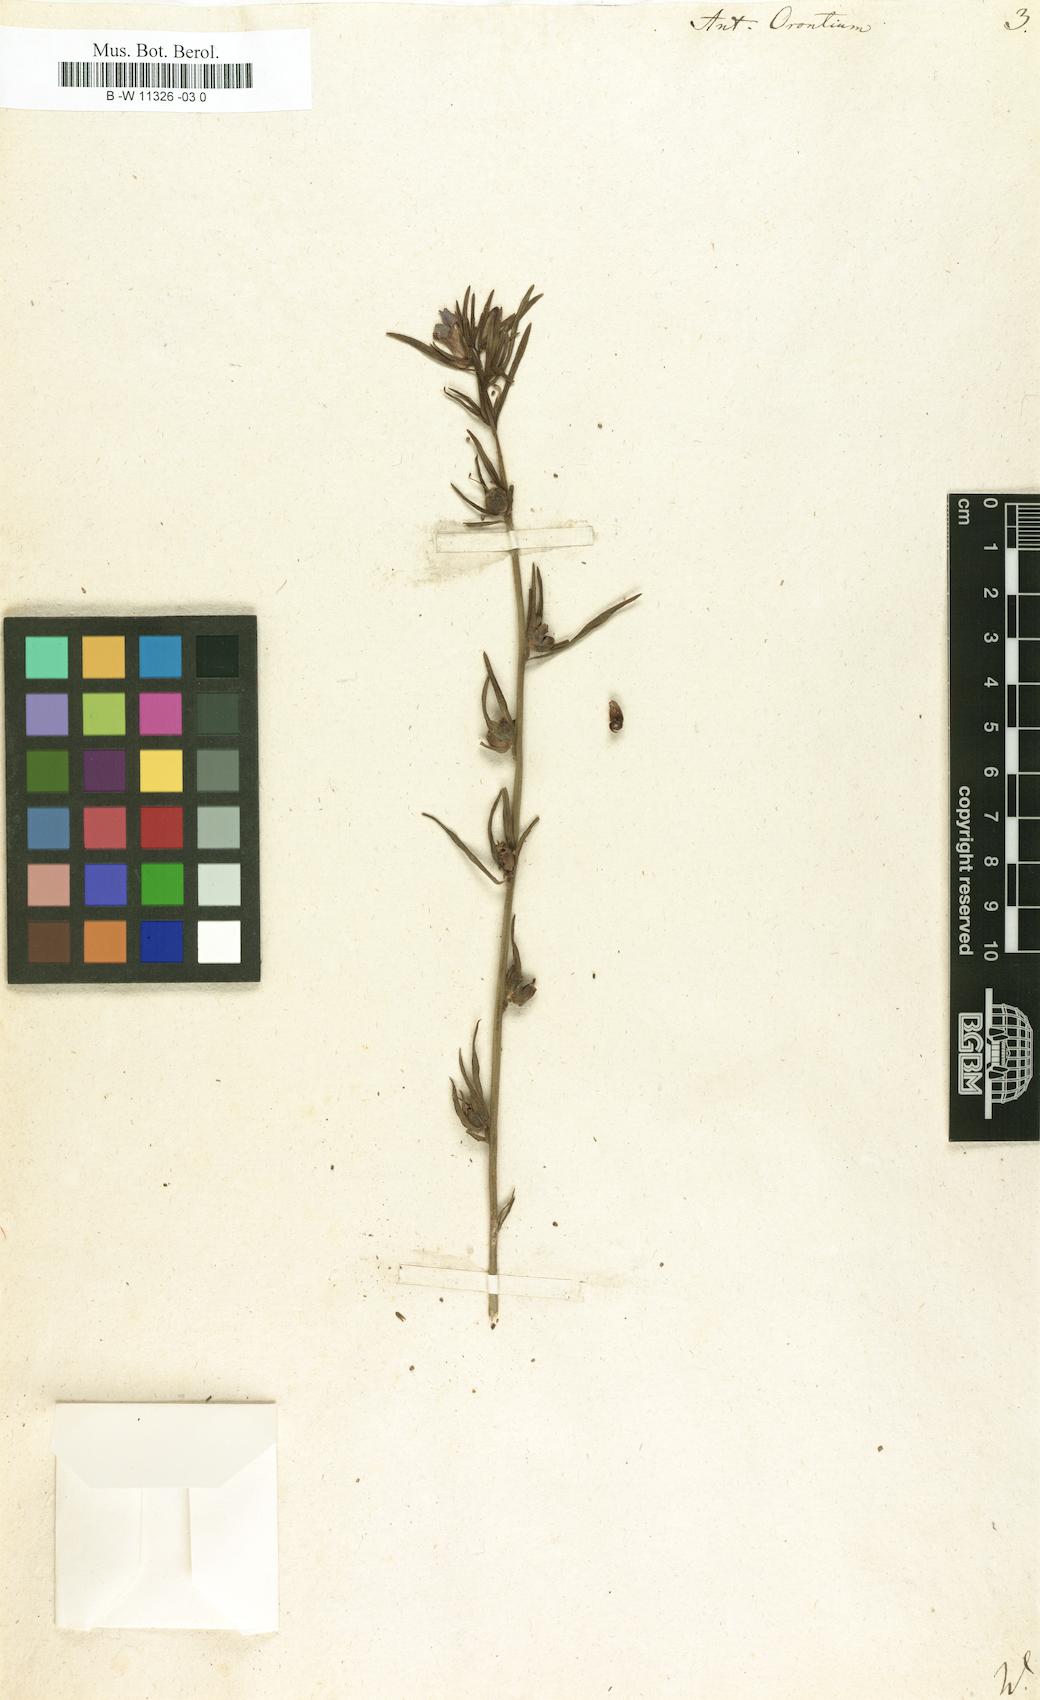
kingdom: Plantae
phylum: Tracheophyta
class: Magnoliopsida
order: Lamiales
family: Plantaginaceae
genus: Misopates
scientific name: Misopates orontium
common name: Weasel's-snout
